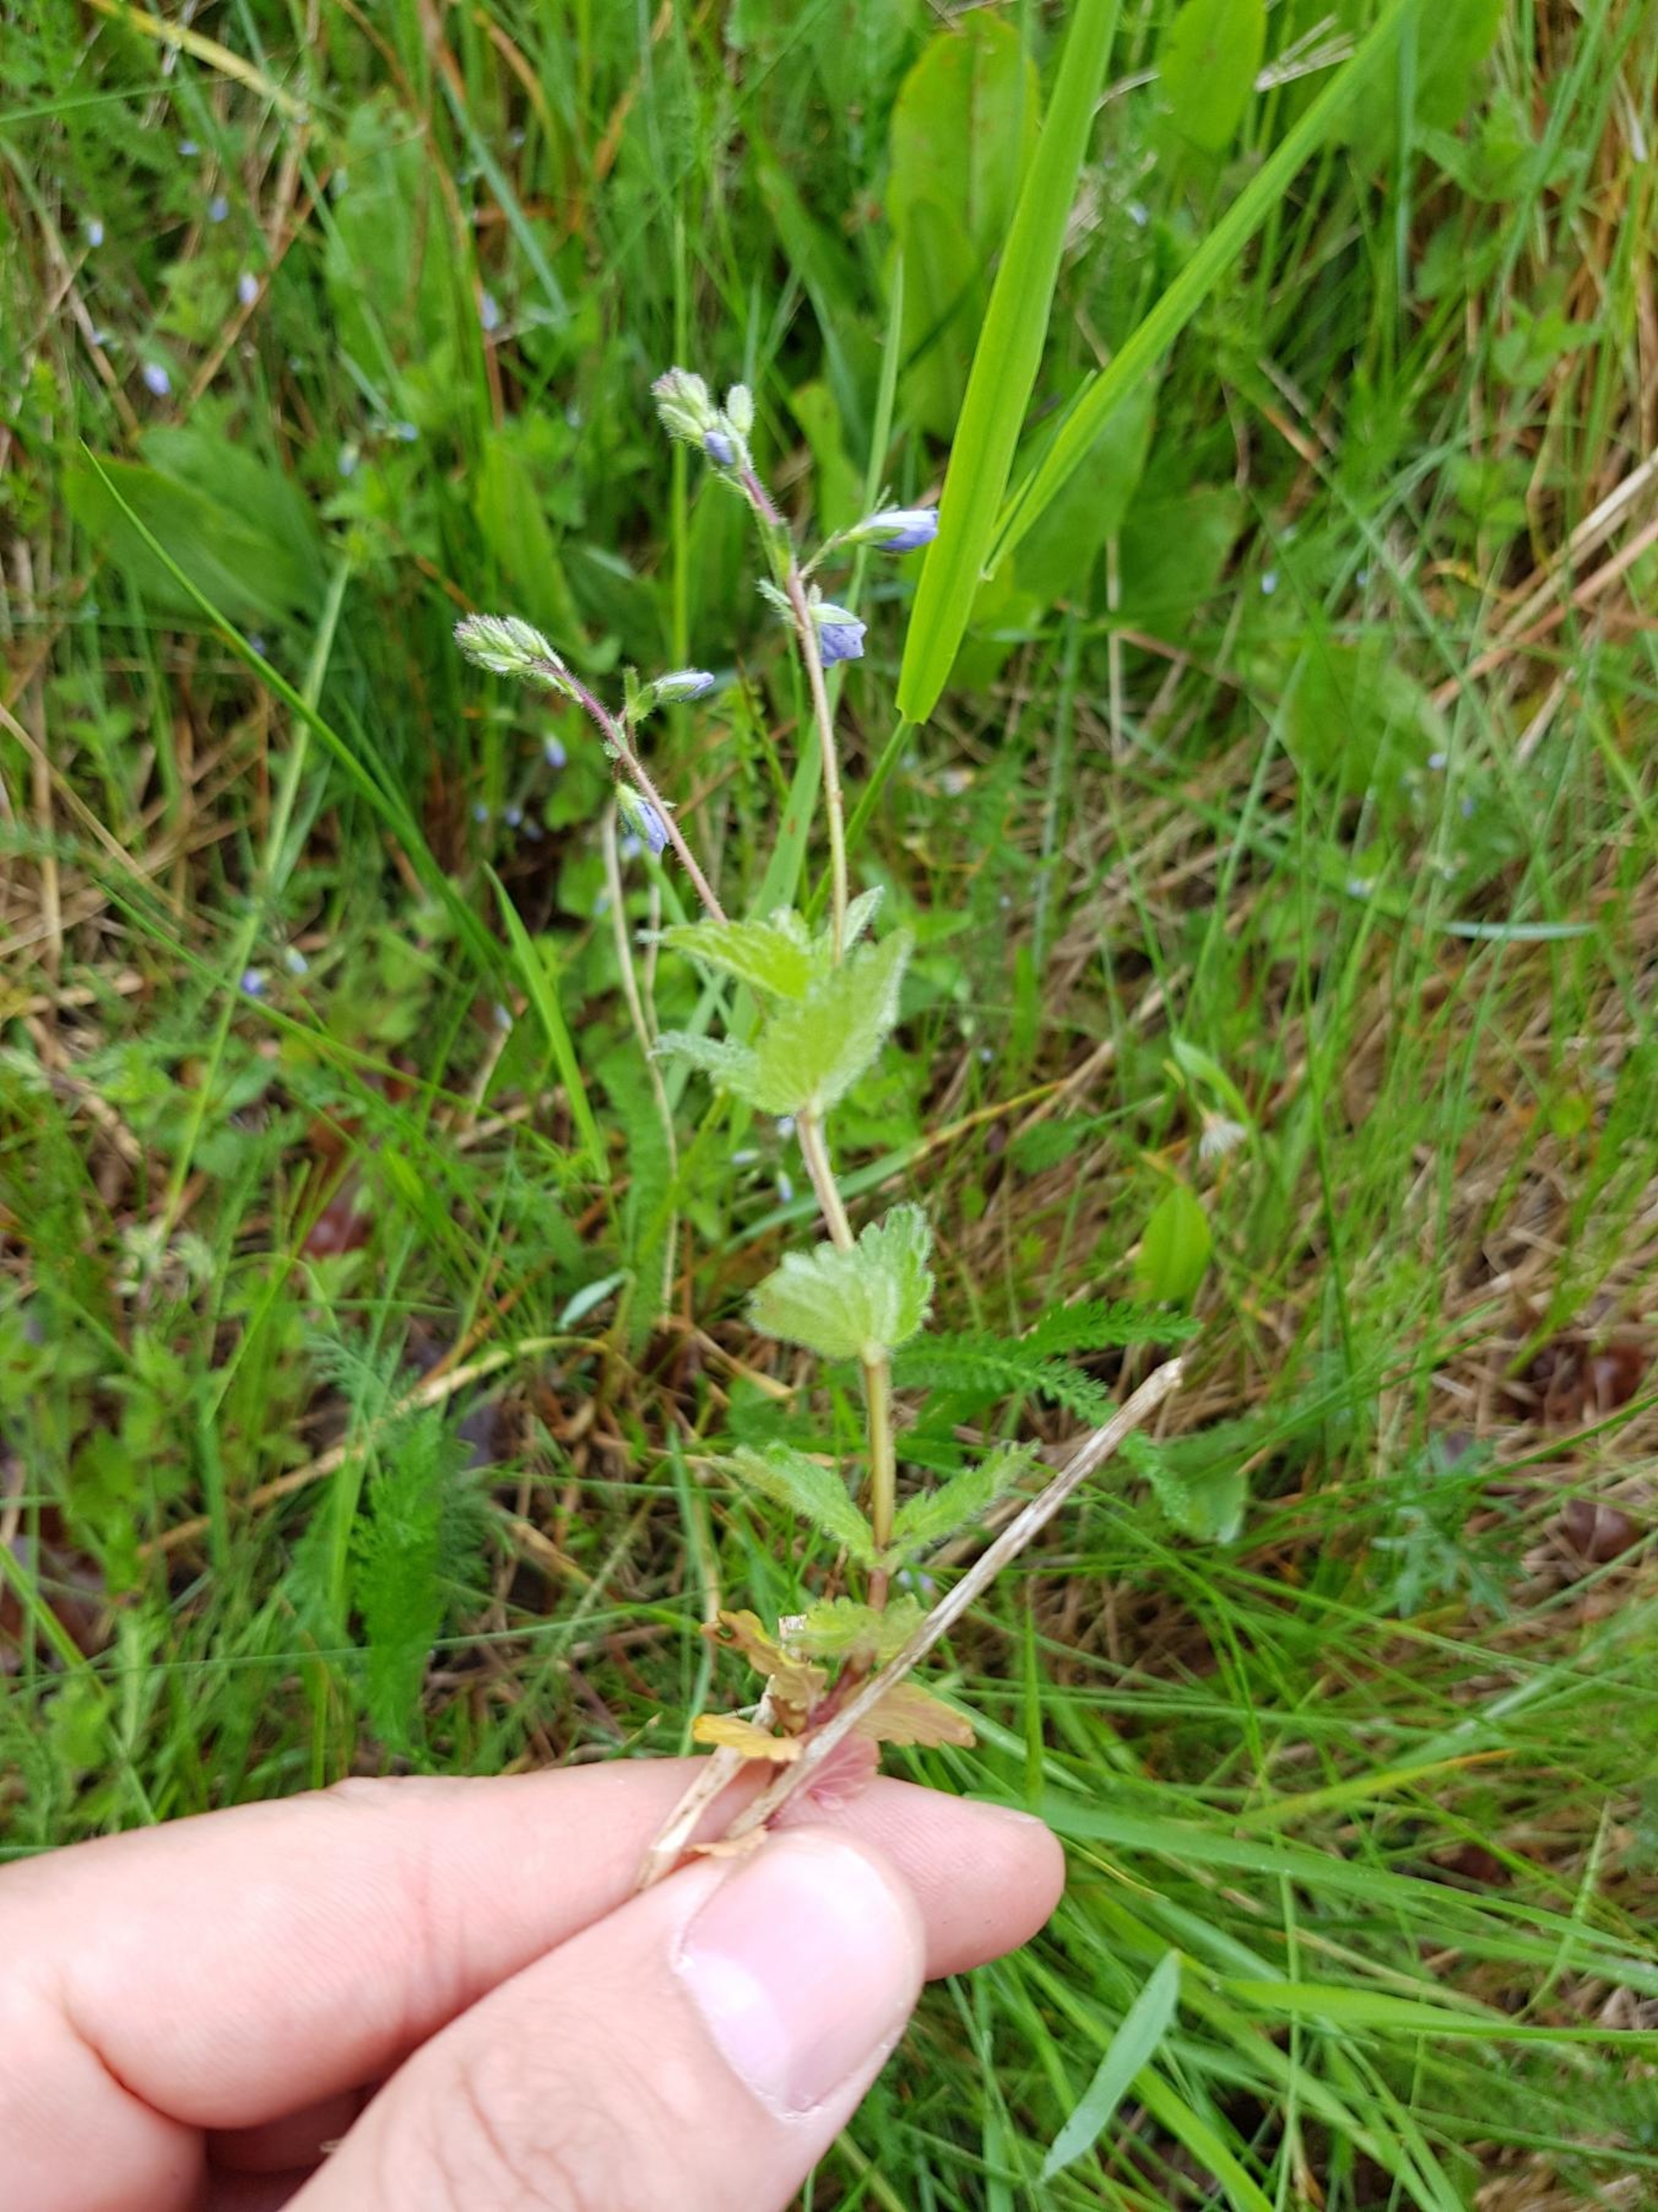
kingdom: Plantae
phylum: Tracheophyta
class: Magnoliopsida
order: Lamiales
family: Plantaginaceae
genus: Veronica
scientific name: Veronica chamaedrys
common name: Tveskægget ærenpris
